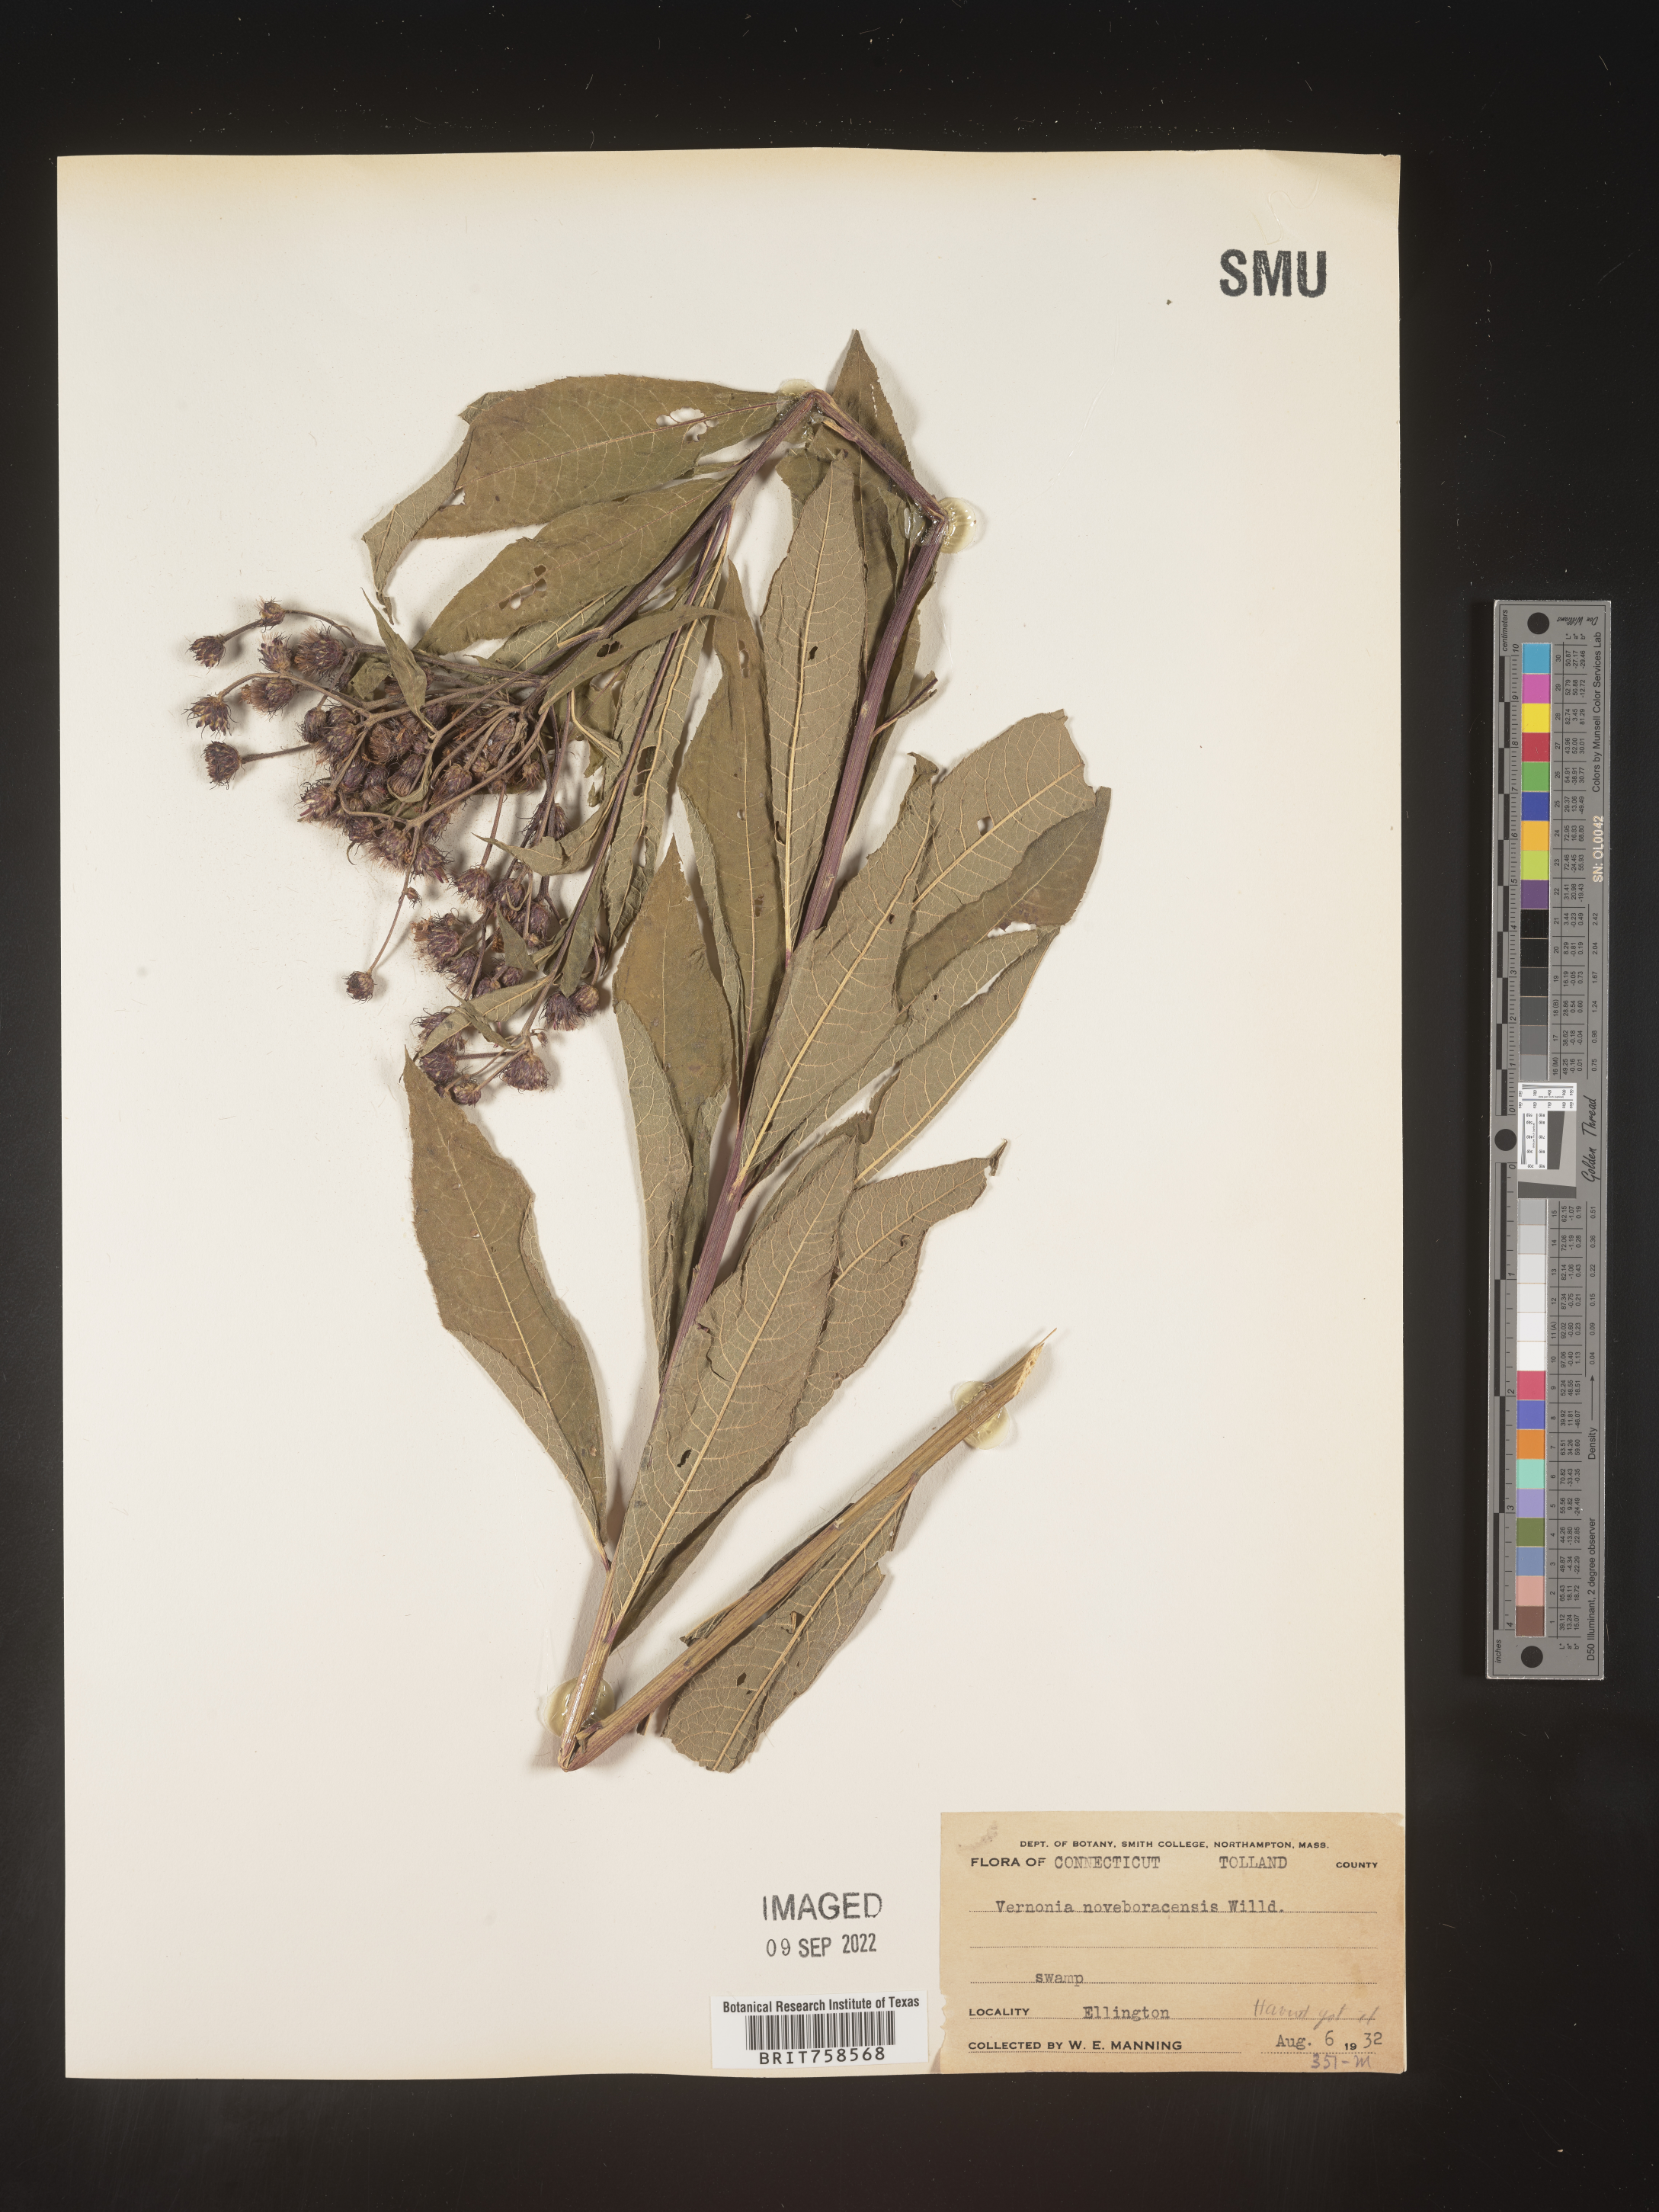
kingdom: Plantae
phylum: Tracheophyta
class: Magnoliopsida
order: Asterales
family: Asteraceae
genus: Vernonia
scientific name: Vernonia noveboracensis
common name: New york ironweed
